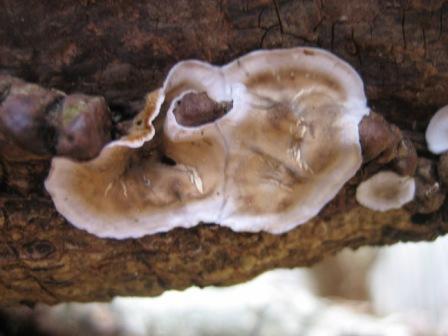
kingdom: Fungi
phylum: Basidiomycota
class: Agaricomycetes
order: Russulales
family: Stereaceae
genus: Stereum
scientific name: Stereum gausapatum
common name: tynd lædersvamp
